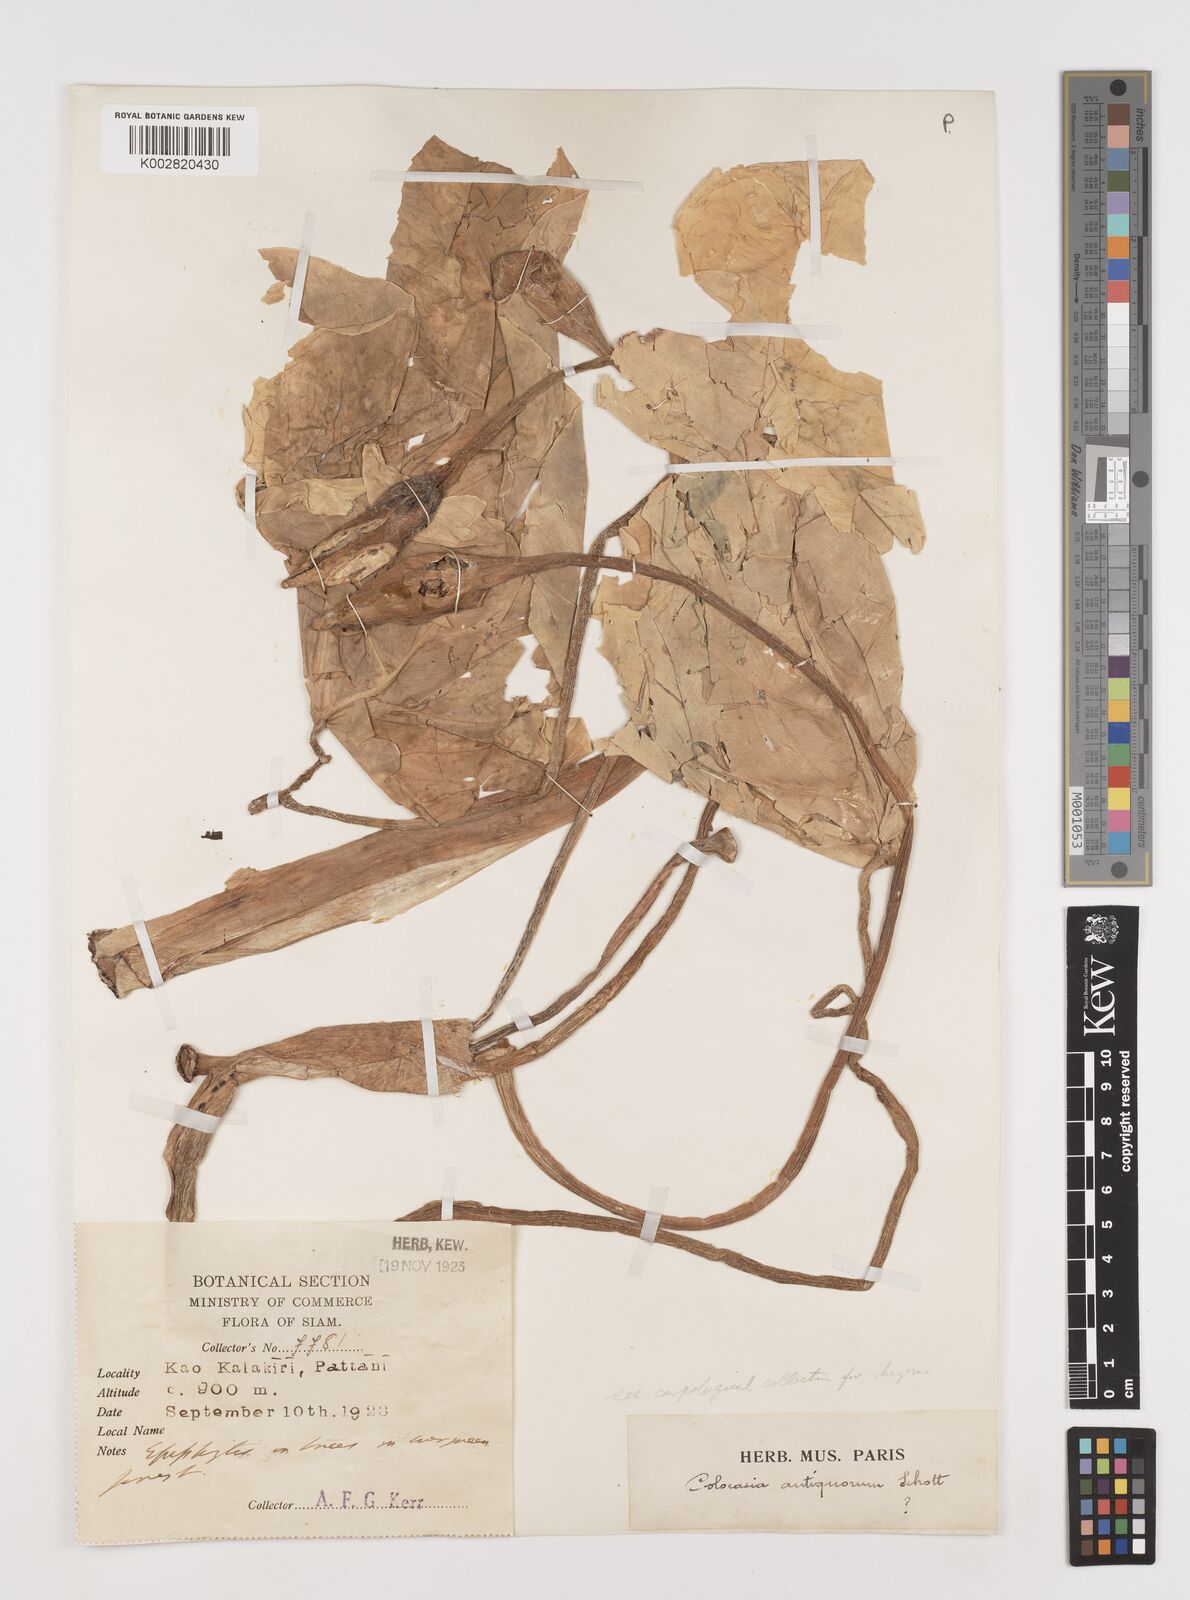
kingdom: Plantae
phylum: Tracheophyta
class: Liliopsida
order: Alismatales
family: Araceae
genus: Colocasia
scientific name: Colocasia esculenta
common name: Taro
